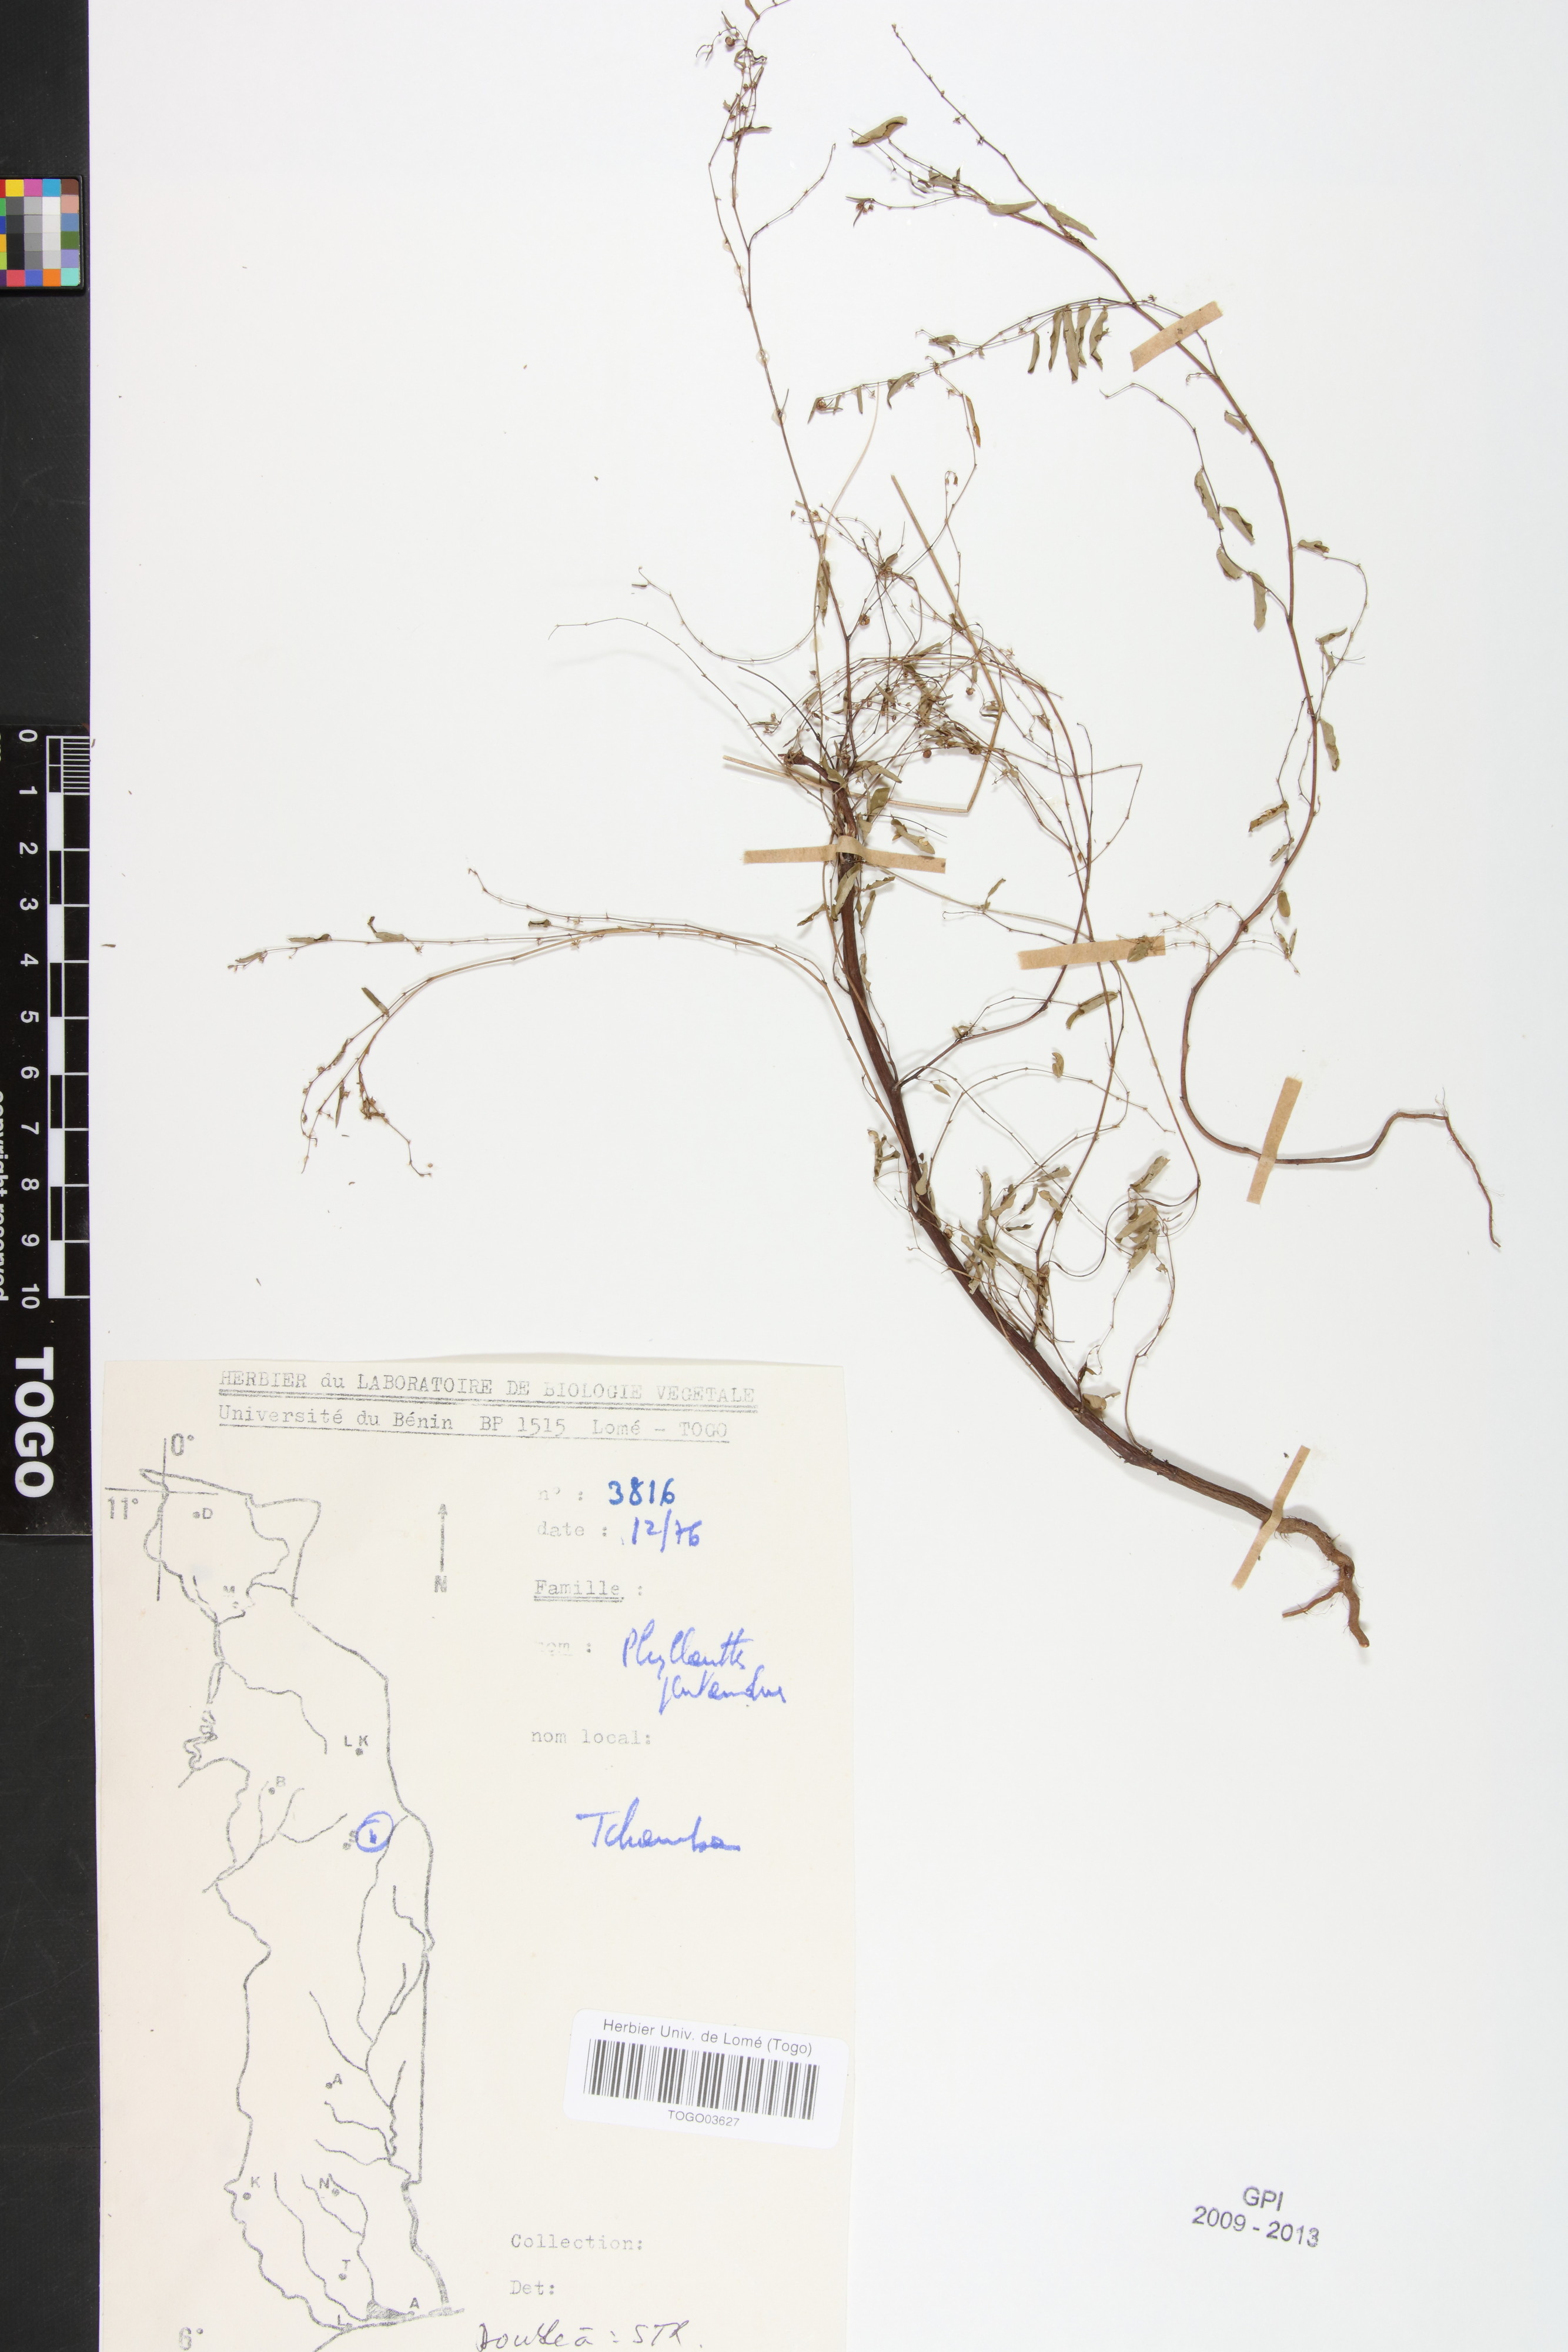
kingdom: Plantae
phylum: Tracheophyta
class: Magnoliopsida
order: Malpighiales
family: Phyllanthaceae
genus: Phyllanthus
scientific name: Phyllanthus pentandrus
